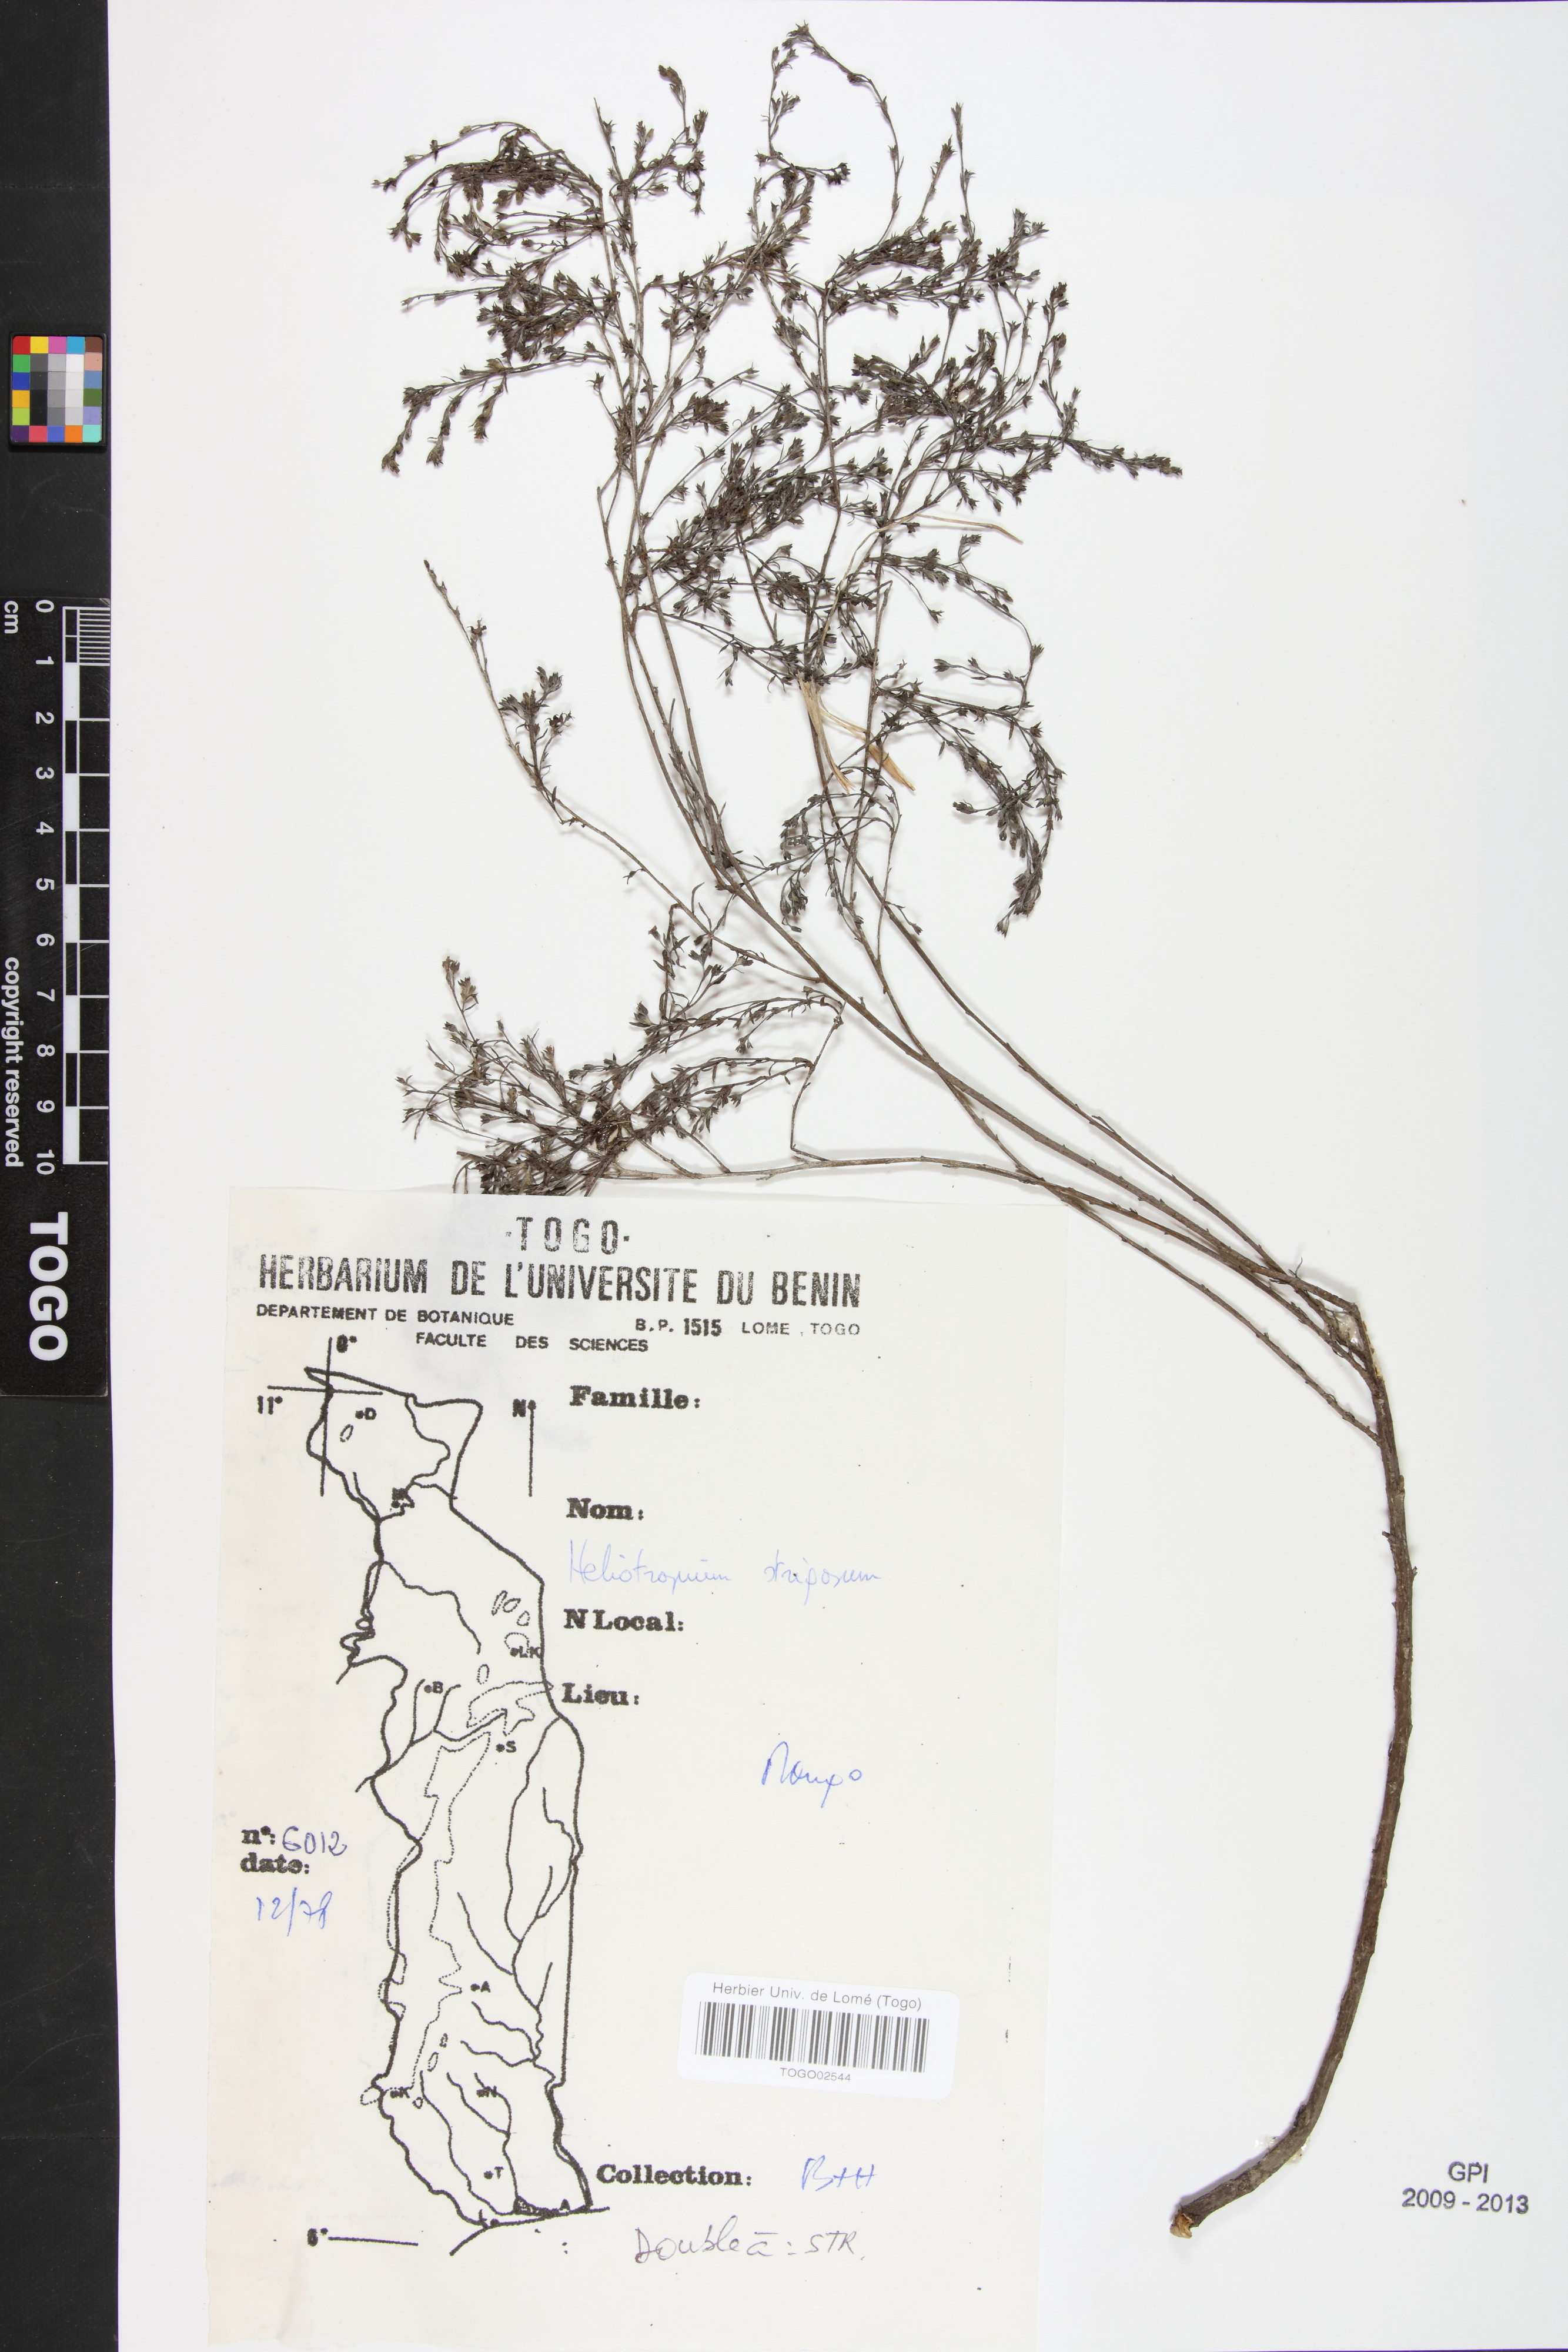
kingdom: Plantae
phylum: Tracheophyta
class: Magnoliopsida
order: Boraginales
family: Heliotropiaceae
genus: Euploca
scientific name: Euploca strigosa
